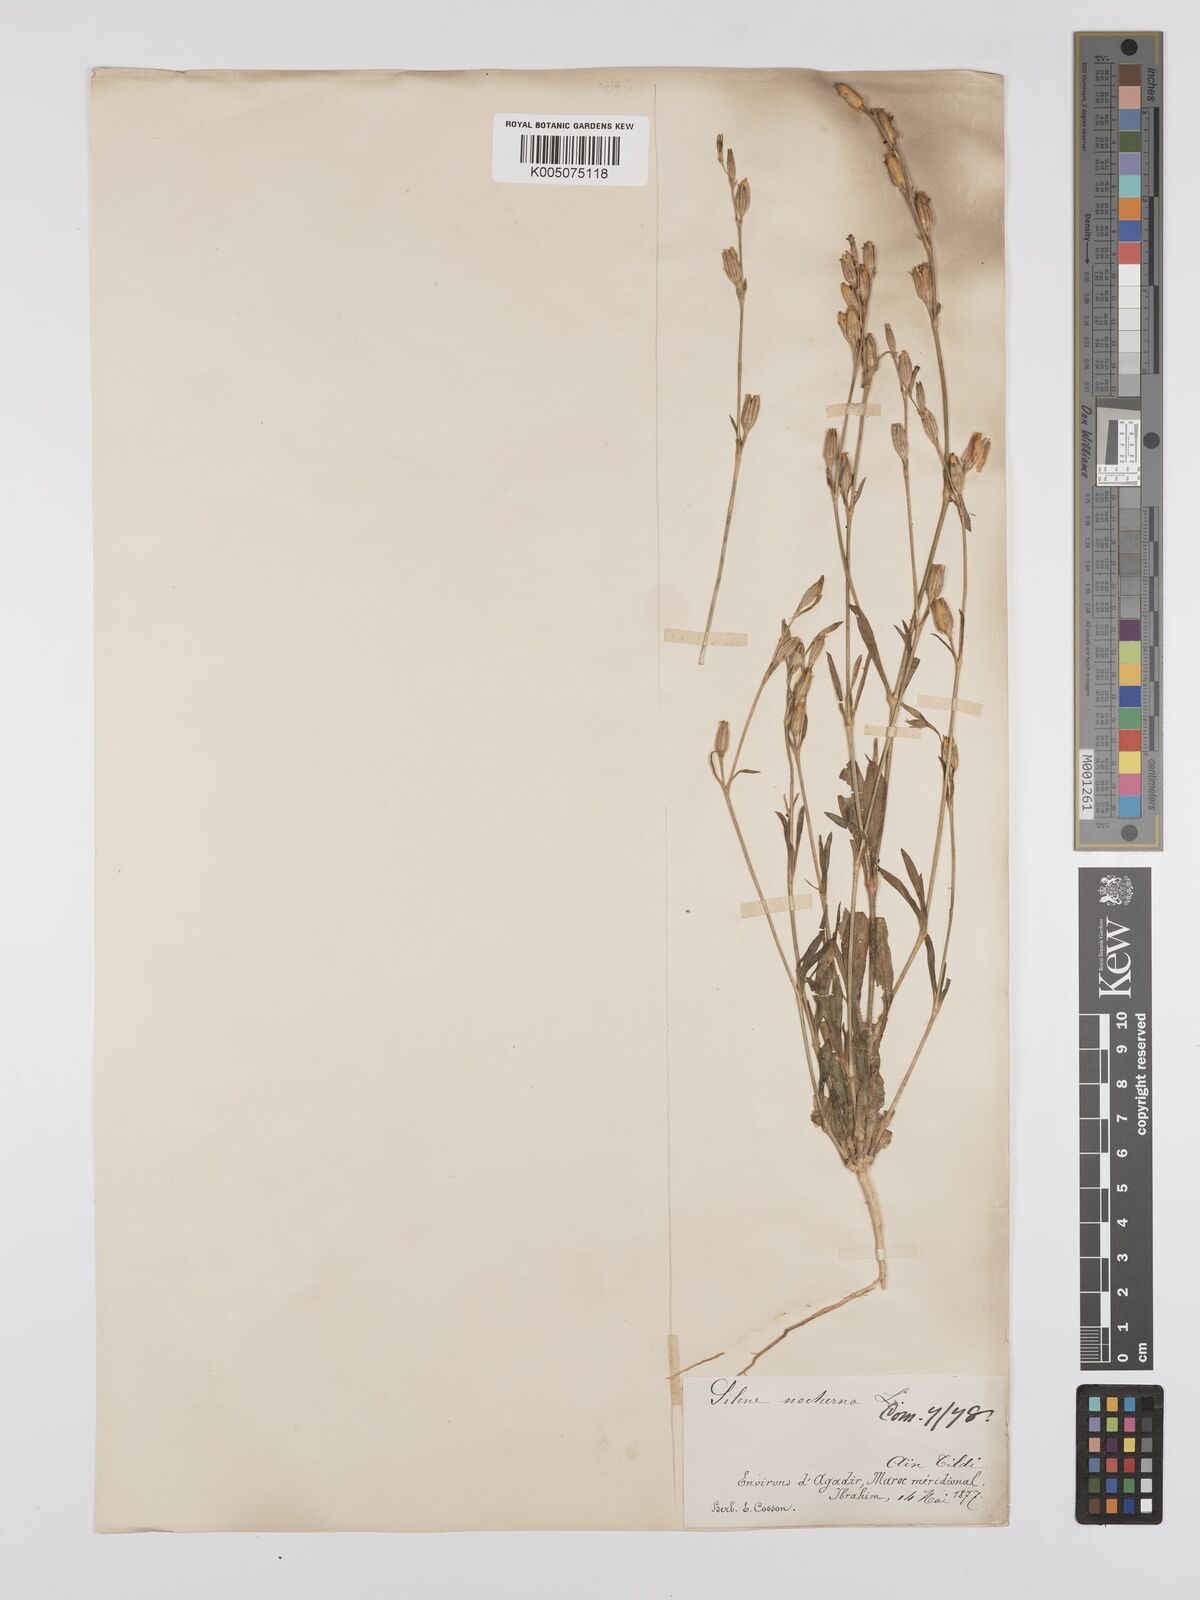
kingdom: Plantae
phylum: Tracheophyta
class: Magnoliopsida
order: Caryophyllales
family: Caryophyllaceae
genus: Silene
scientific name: Silene nocturna
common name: Mediterranean catchfly
